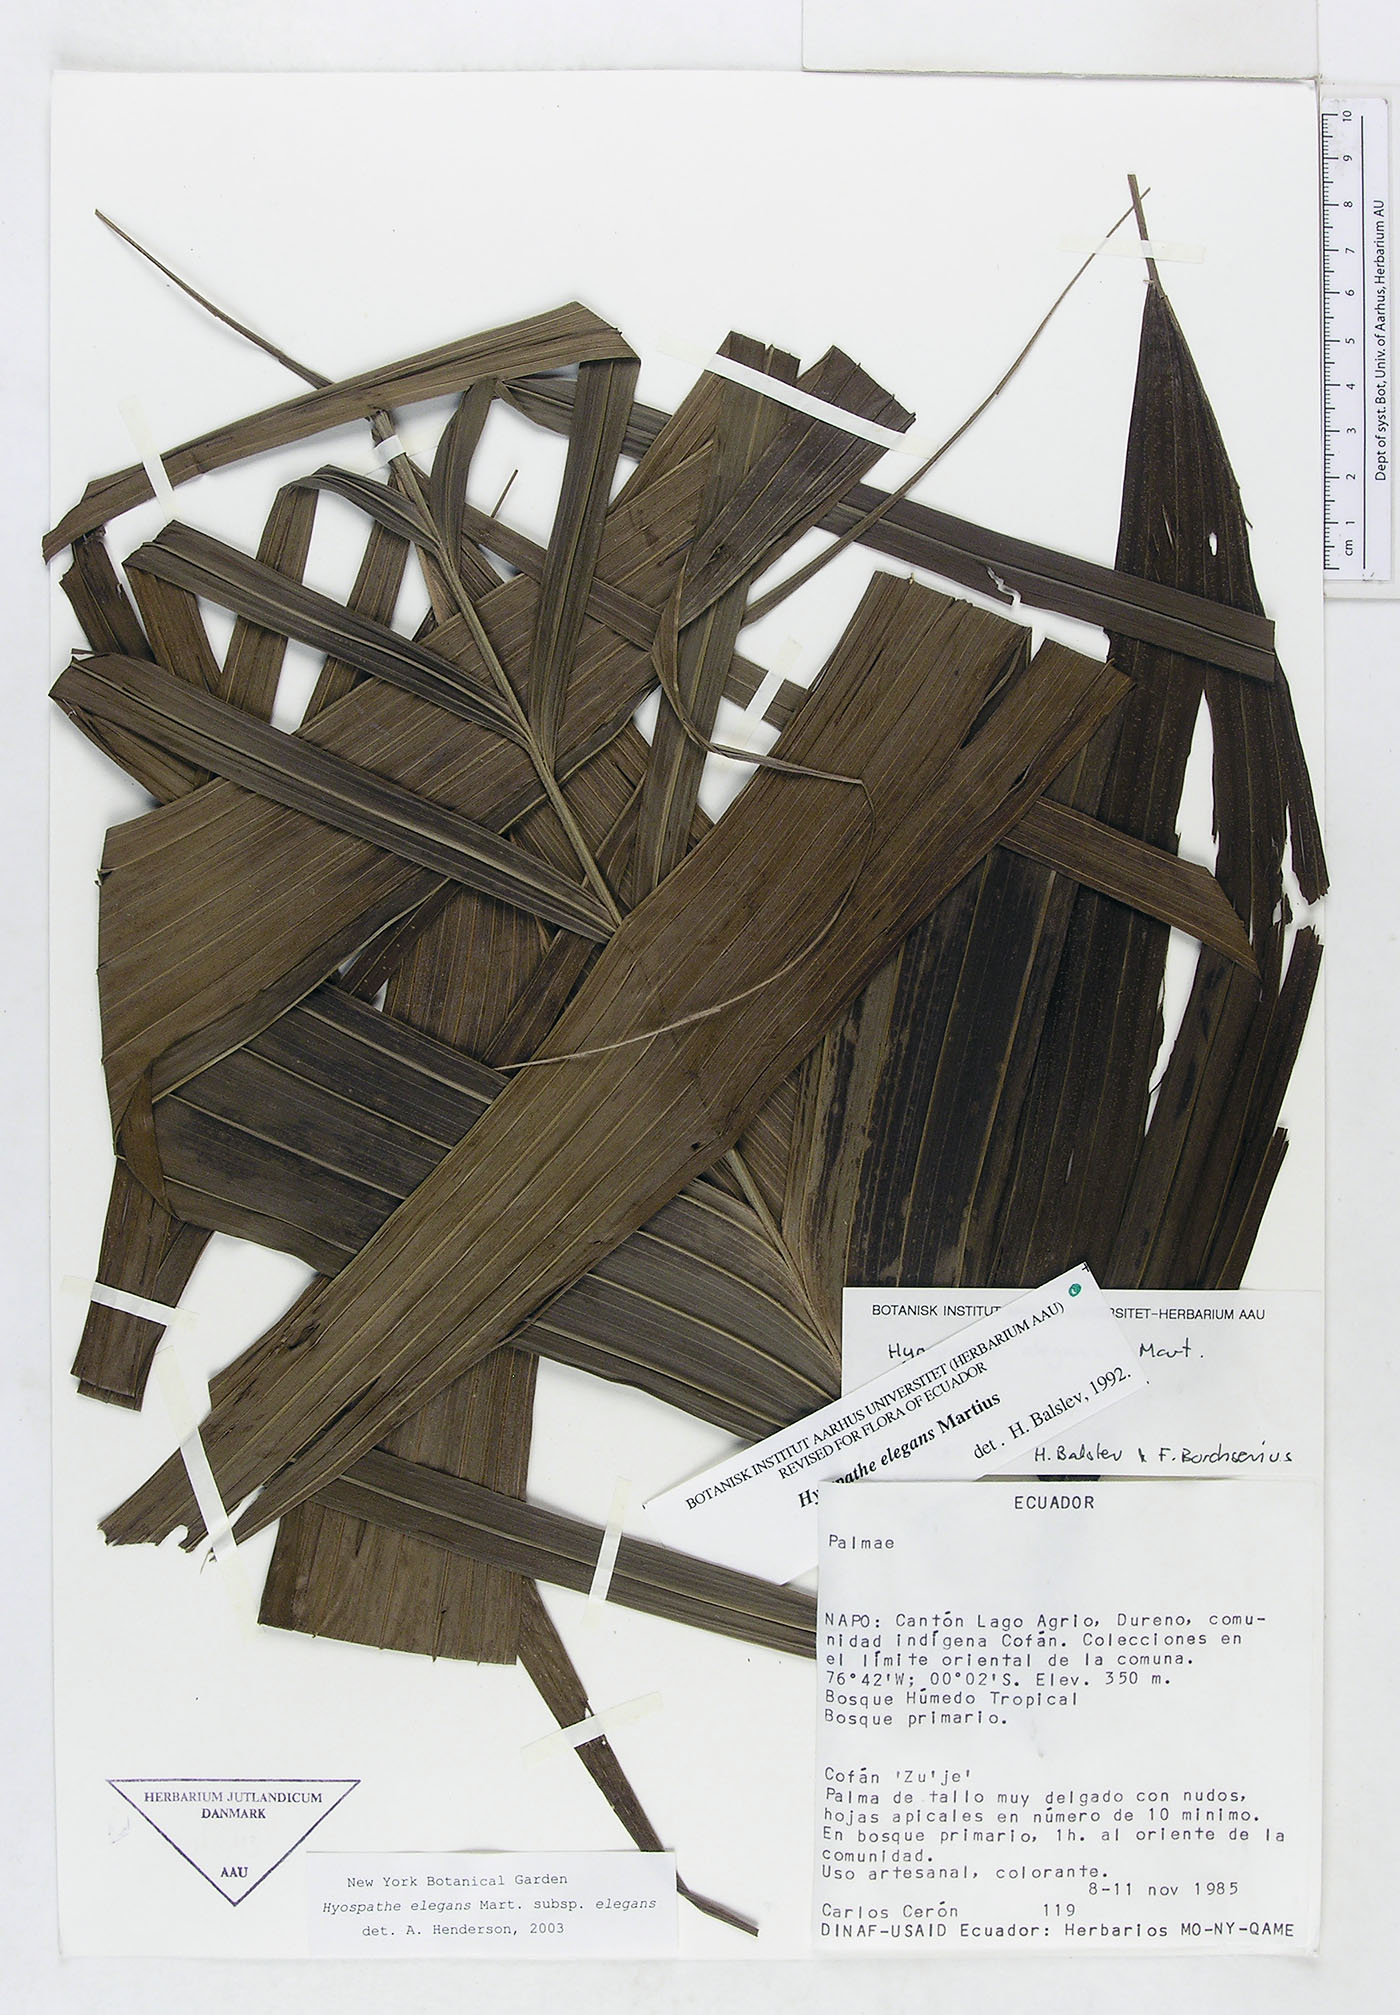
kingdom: Plantae
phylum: Tracheophyta
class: Liliopsida
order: Arecales
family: Arecaceae
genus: Hyospathe
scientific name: Hyospathe elegans
